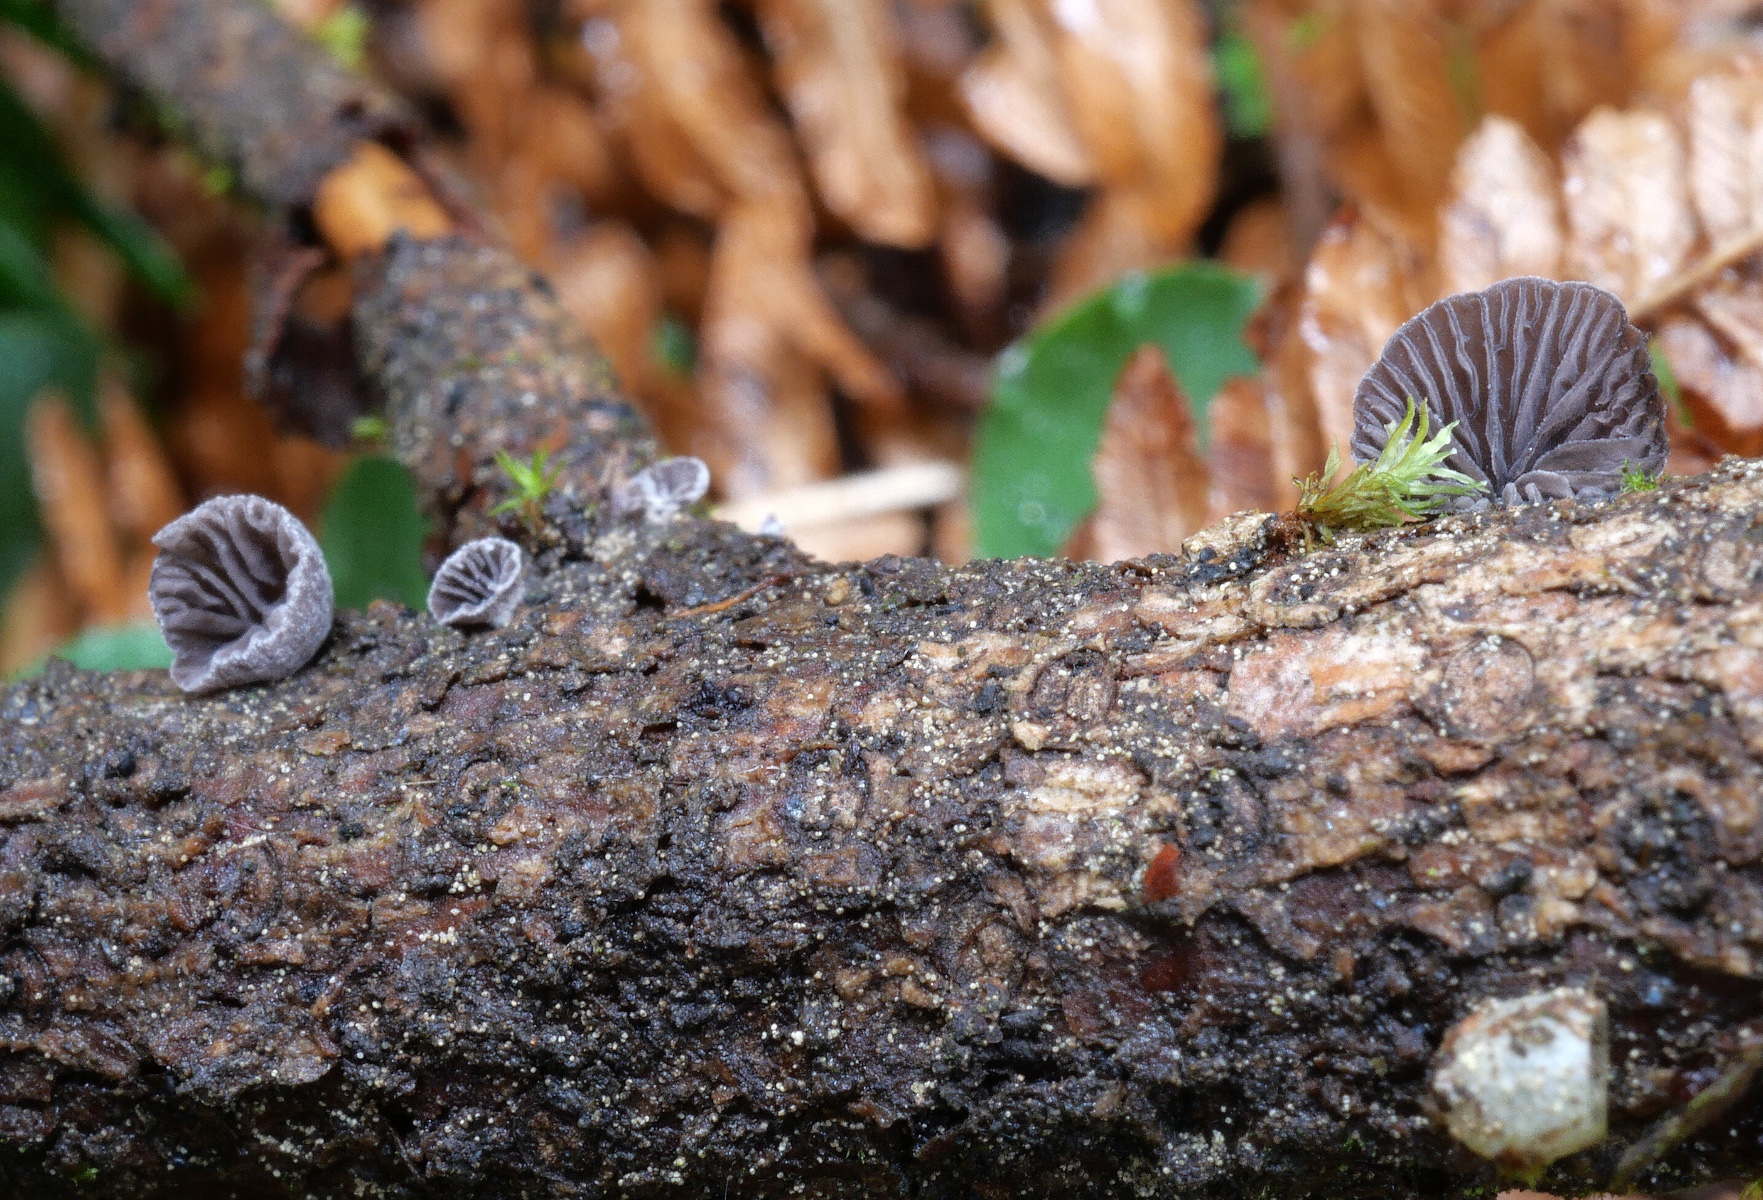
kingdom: Fungi
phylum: Basidiomycota
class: Agaricomycetes
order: Agaricales
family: Pleurotaceae
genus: Hohenbuehelia
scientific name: Hohenbuehelia josserandii
